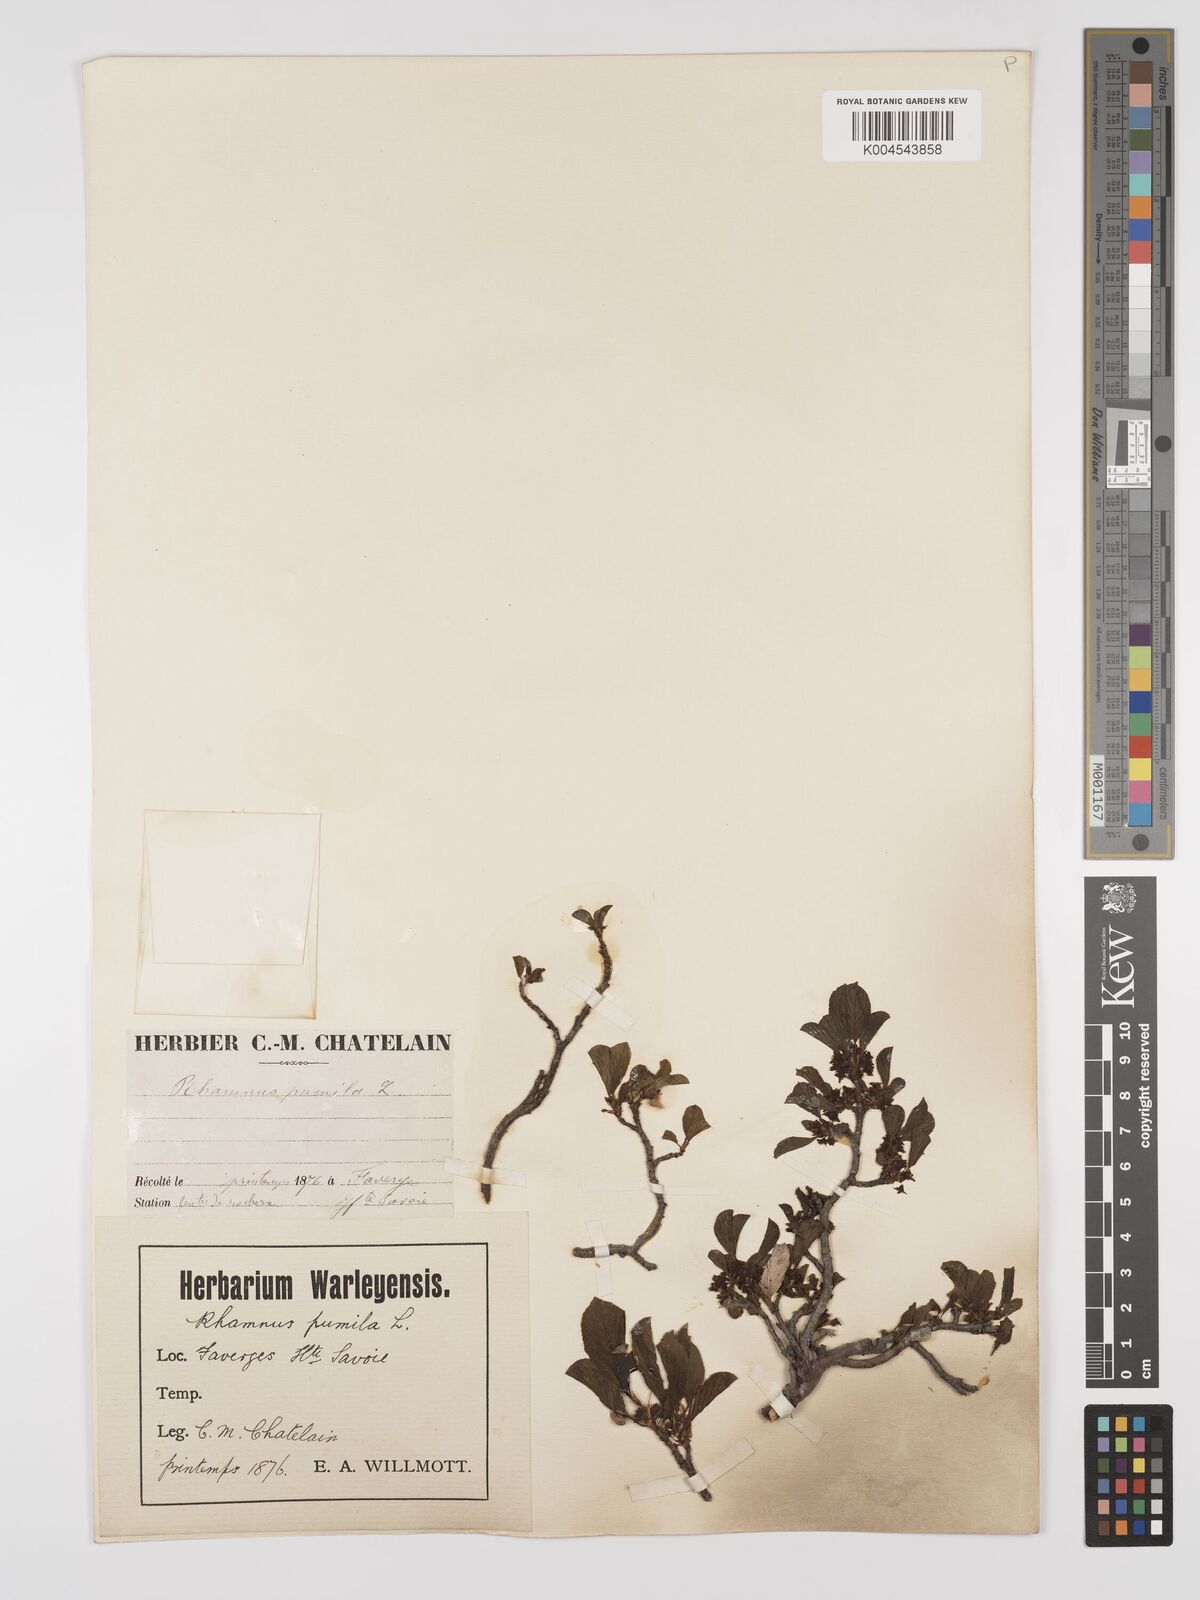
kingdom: Plantae
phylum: Tracheophyta
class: Magnoliopsida
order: Rosales
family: Rhamnaceae
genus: Rhamnus
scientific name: Rhamnus
